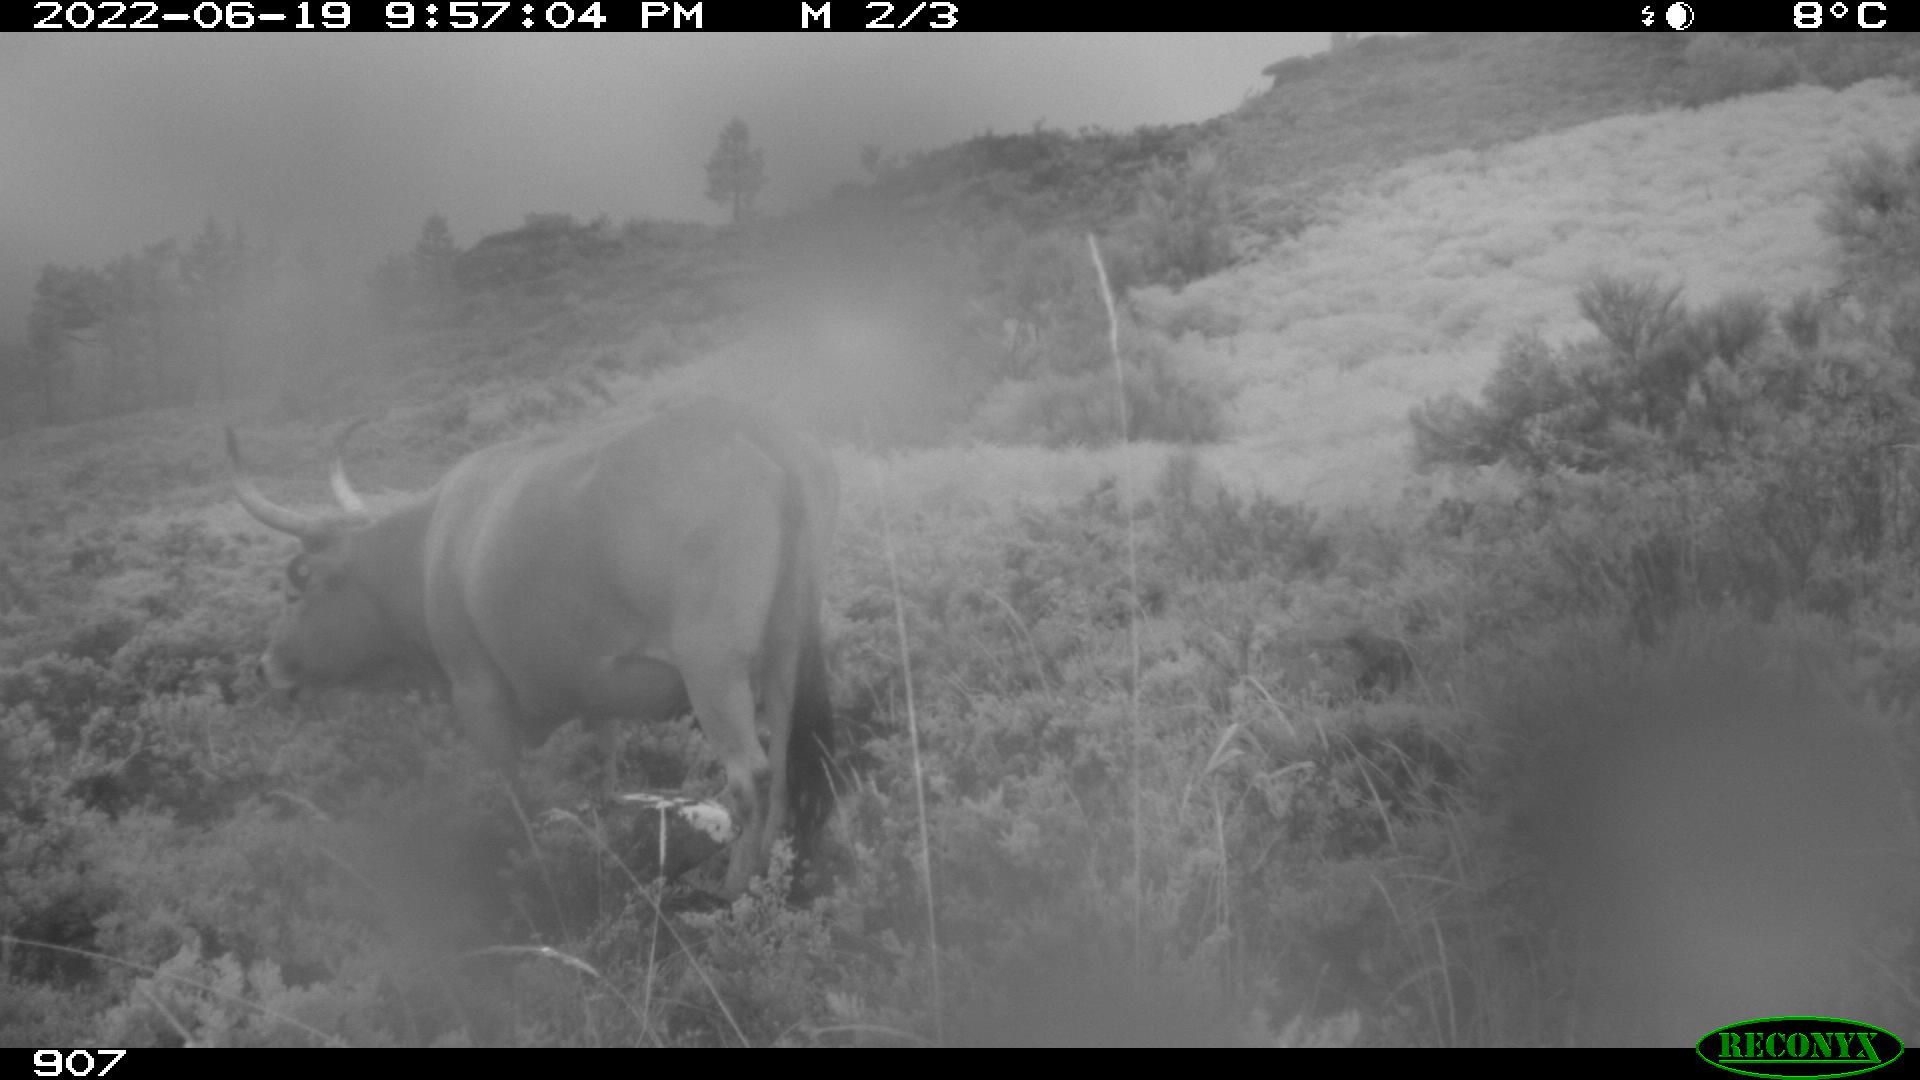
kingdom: Animalia
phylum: Chordata
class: Mammalia
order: Artiodactyla
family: Bovidae
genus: Bos
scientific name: Bos taurus
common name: Domesticated cattle
